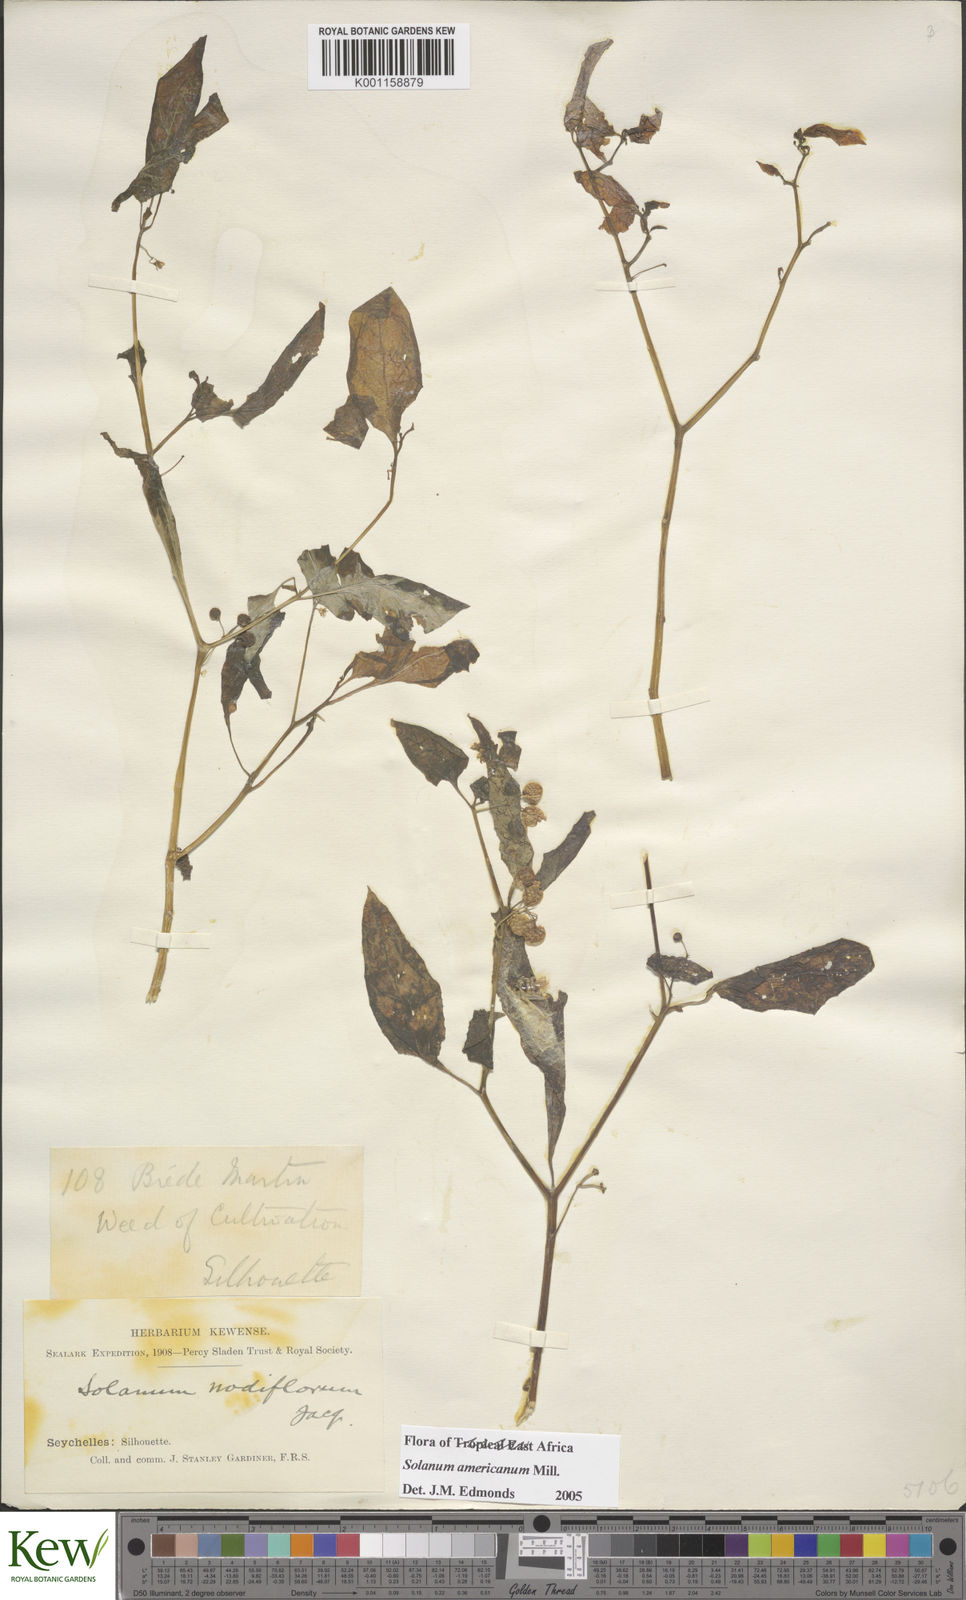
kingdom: Plantae
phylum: Tracheophyta
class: Magnoliopsida
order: Solanales
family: Solanaceae
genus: Solanum
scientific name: Solanum americanum
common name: American black nightshade
